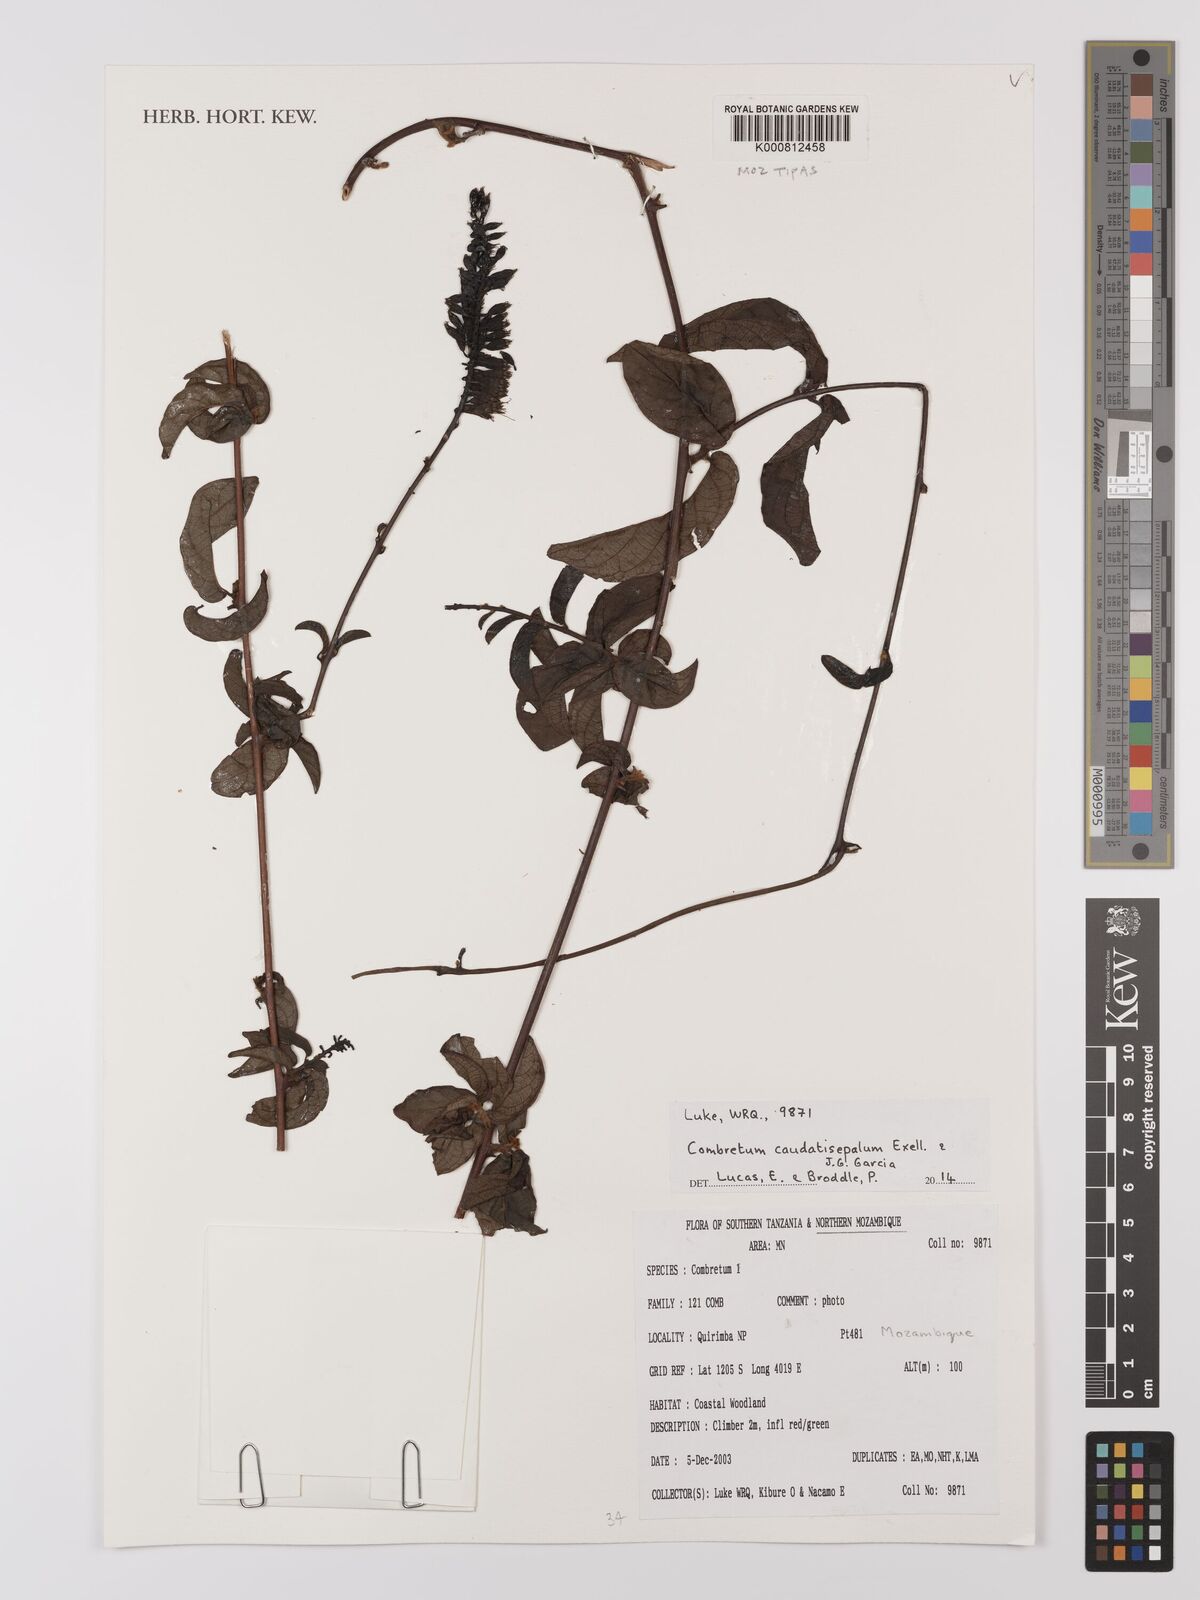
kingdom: Plantae
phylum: Tracheophyta
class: Magnoliopsida
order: Myrtales
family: Combretaceae
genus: Combretum
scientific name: Combretum caudatisepalum
